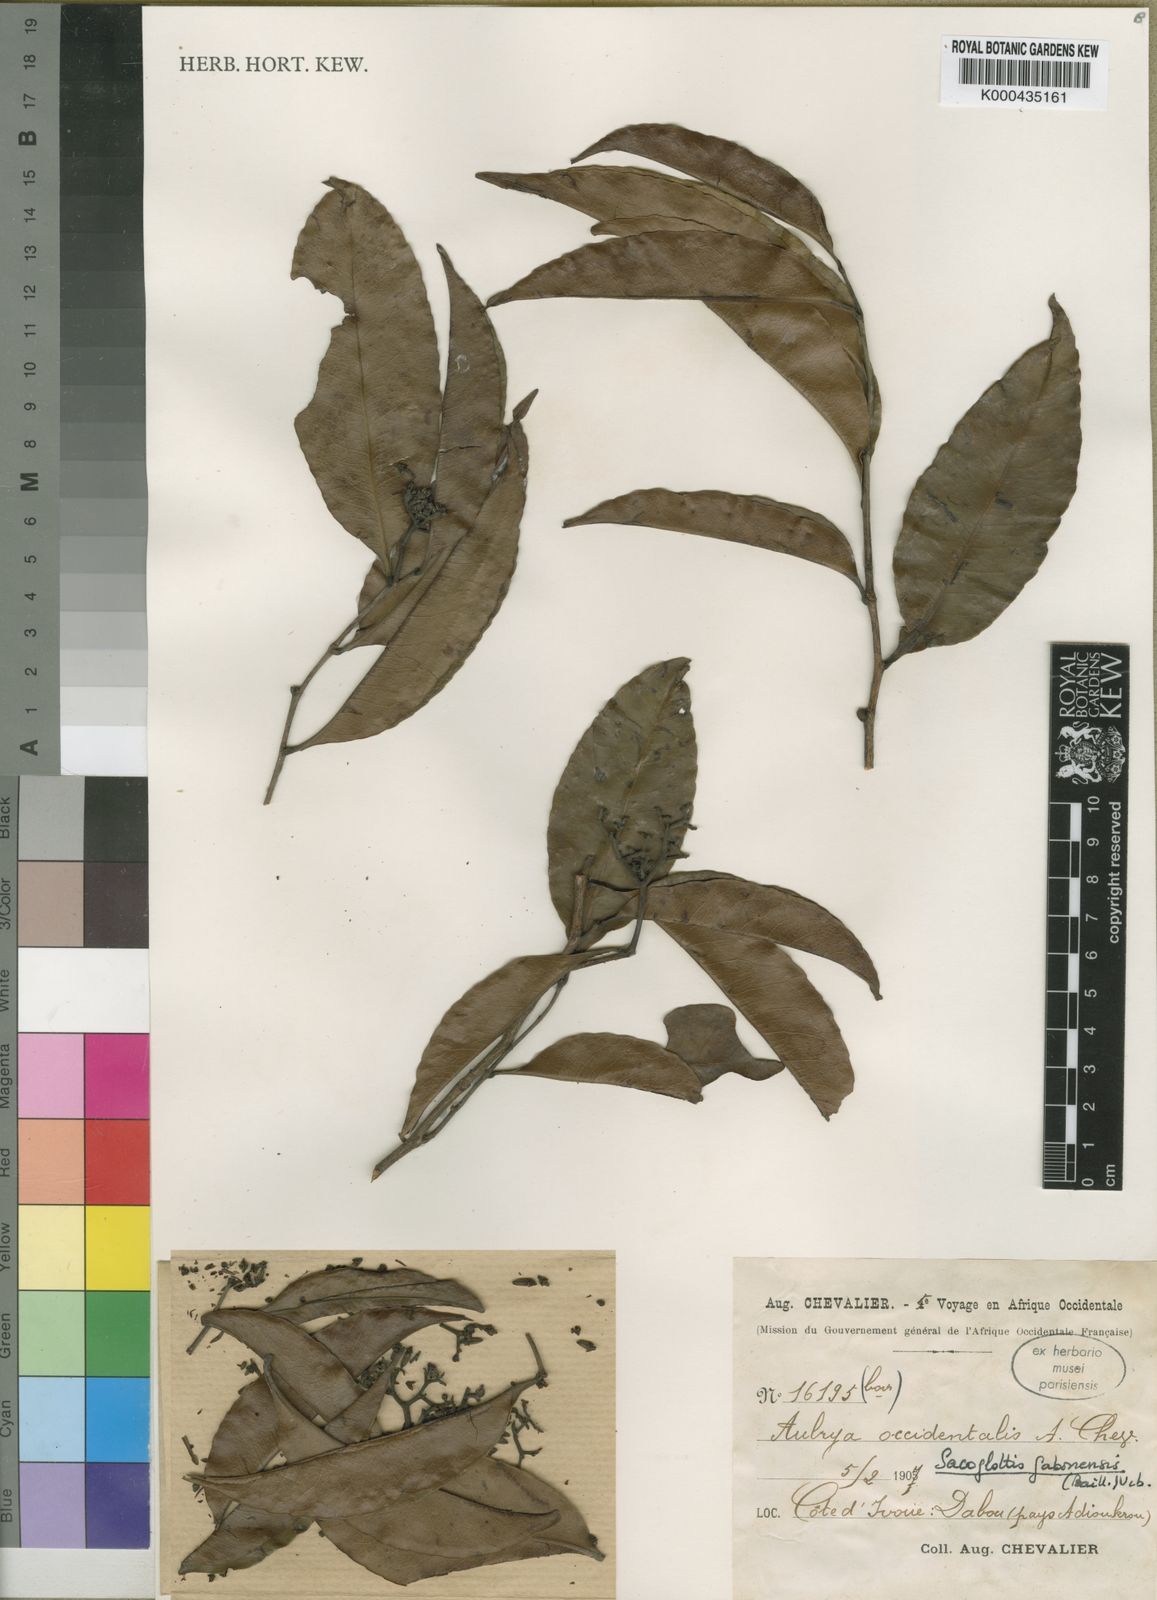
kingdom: Plantae
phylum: Tracheophyta
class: Magnoliopsida
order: Malpighiales
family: Humiriaceae
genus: Sacoglottis
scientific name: Sacoglottis gabonensis
